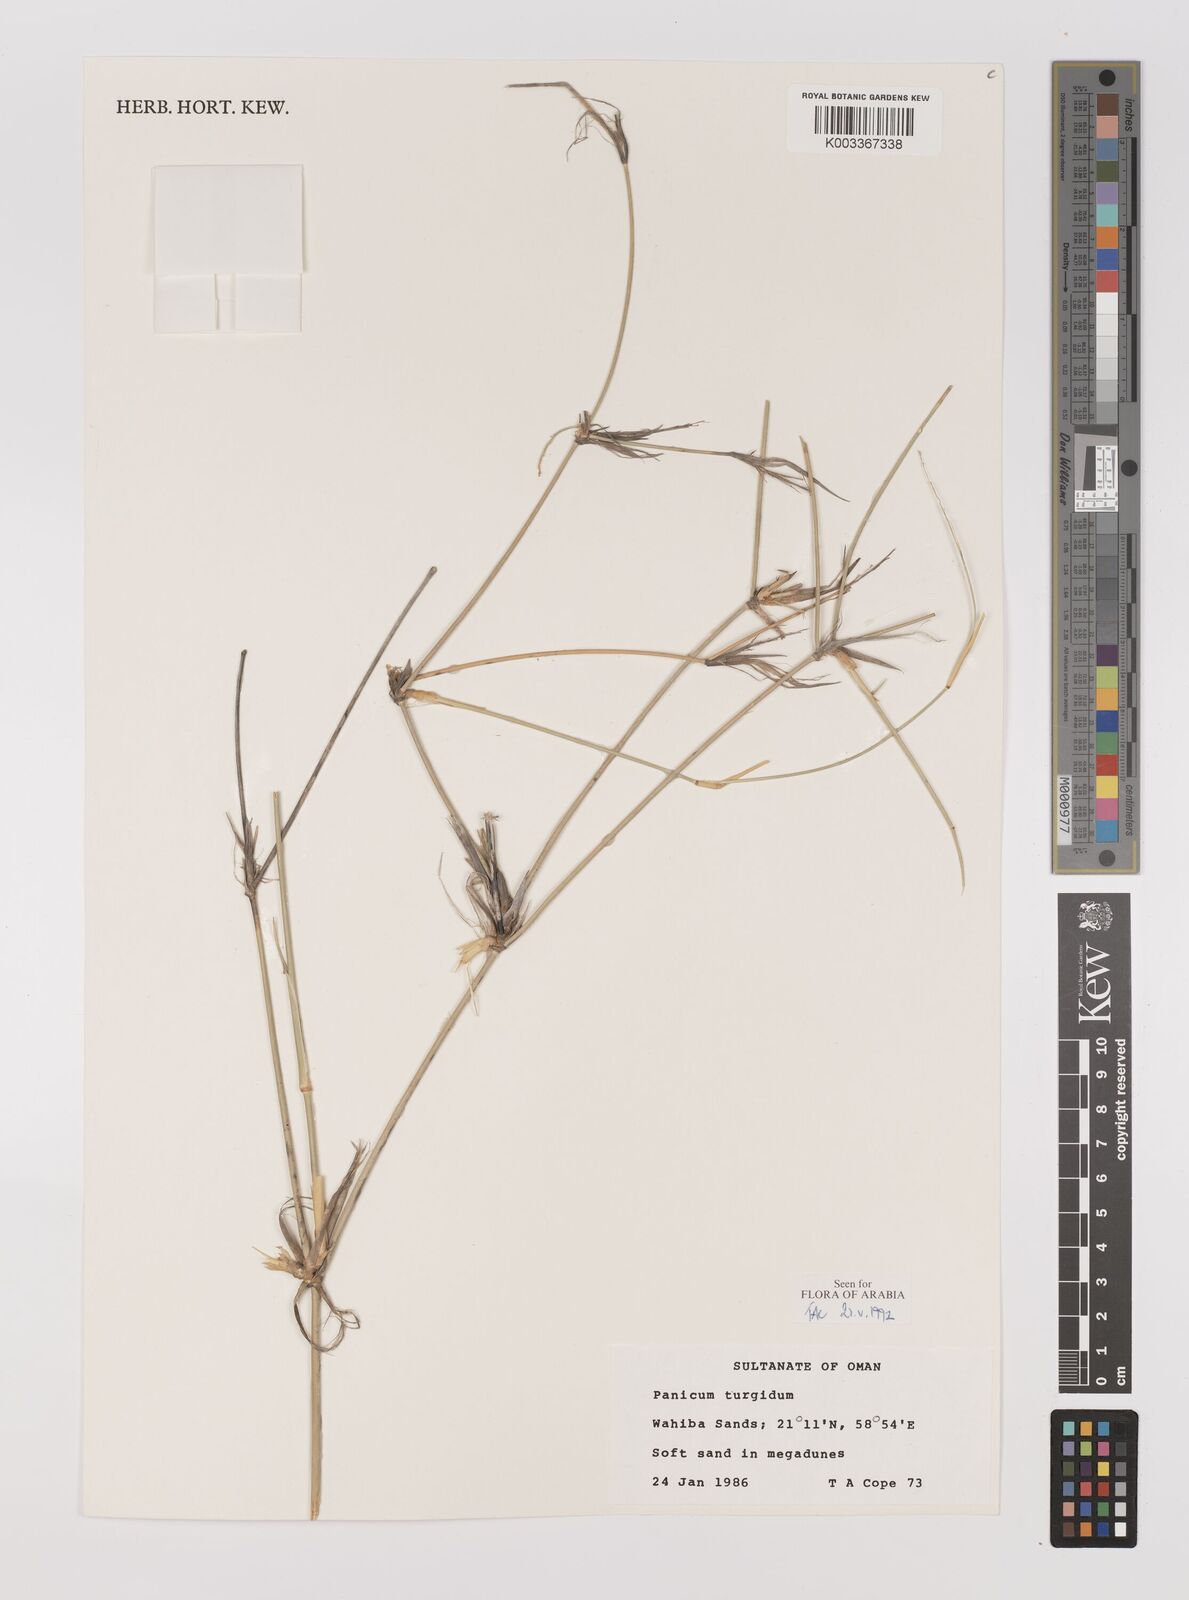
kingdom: Plantae
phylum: Tracheophyta
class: Liliopsida
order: Poales
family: Poaceae
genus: Panicum
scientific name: Panicum turgidum
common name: Desert grass
